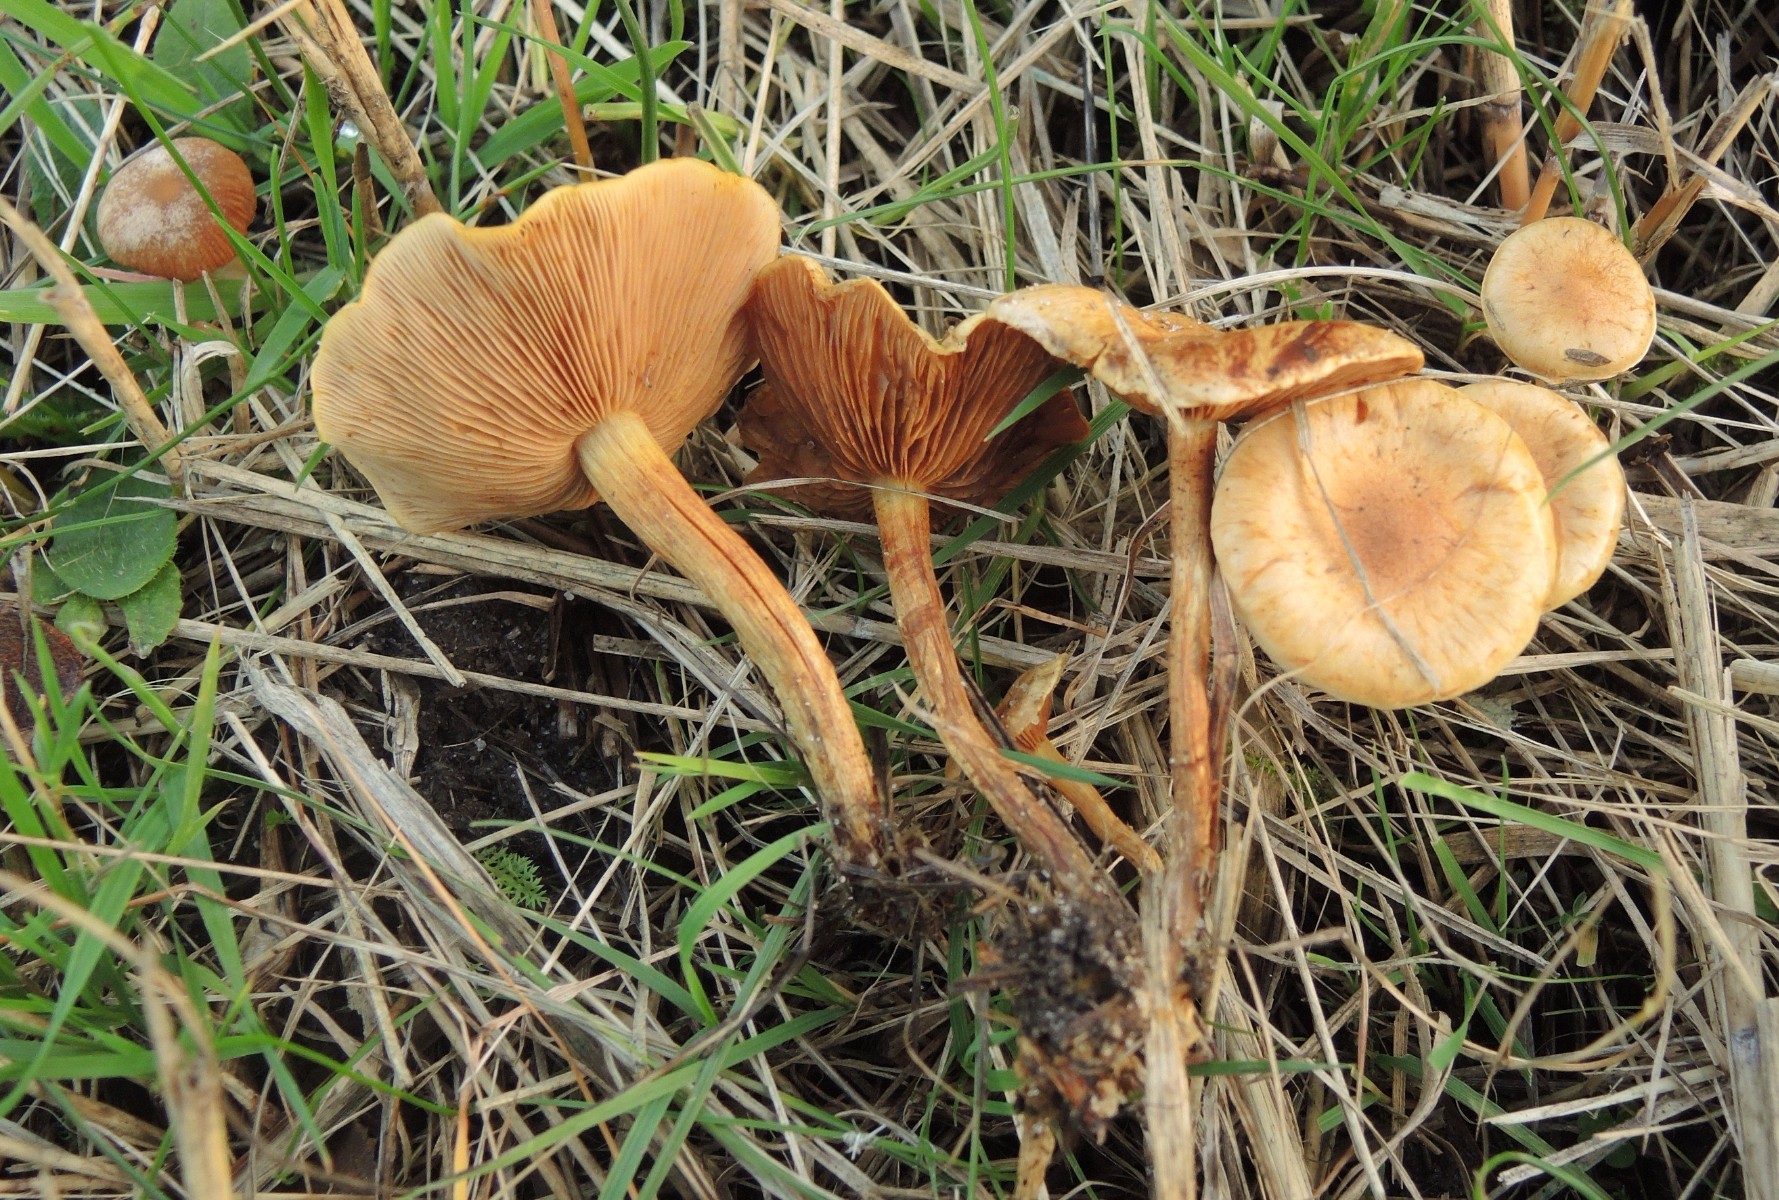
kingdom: Fungi
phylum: Basidiomycota
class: Agaricomycetes
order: Agaricales
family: Strophariaceae
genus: Pholiota
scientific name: Pholiota conissans
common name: pile-skælhat
